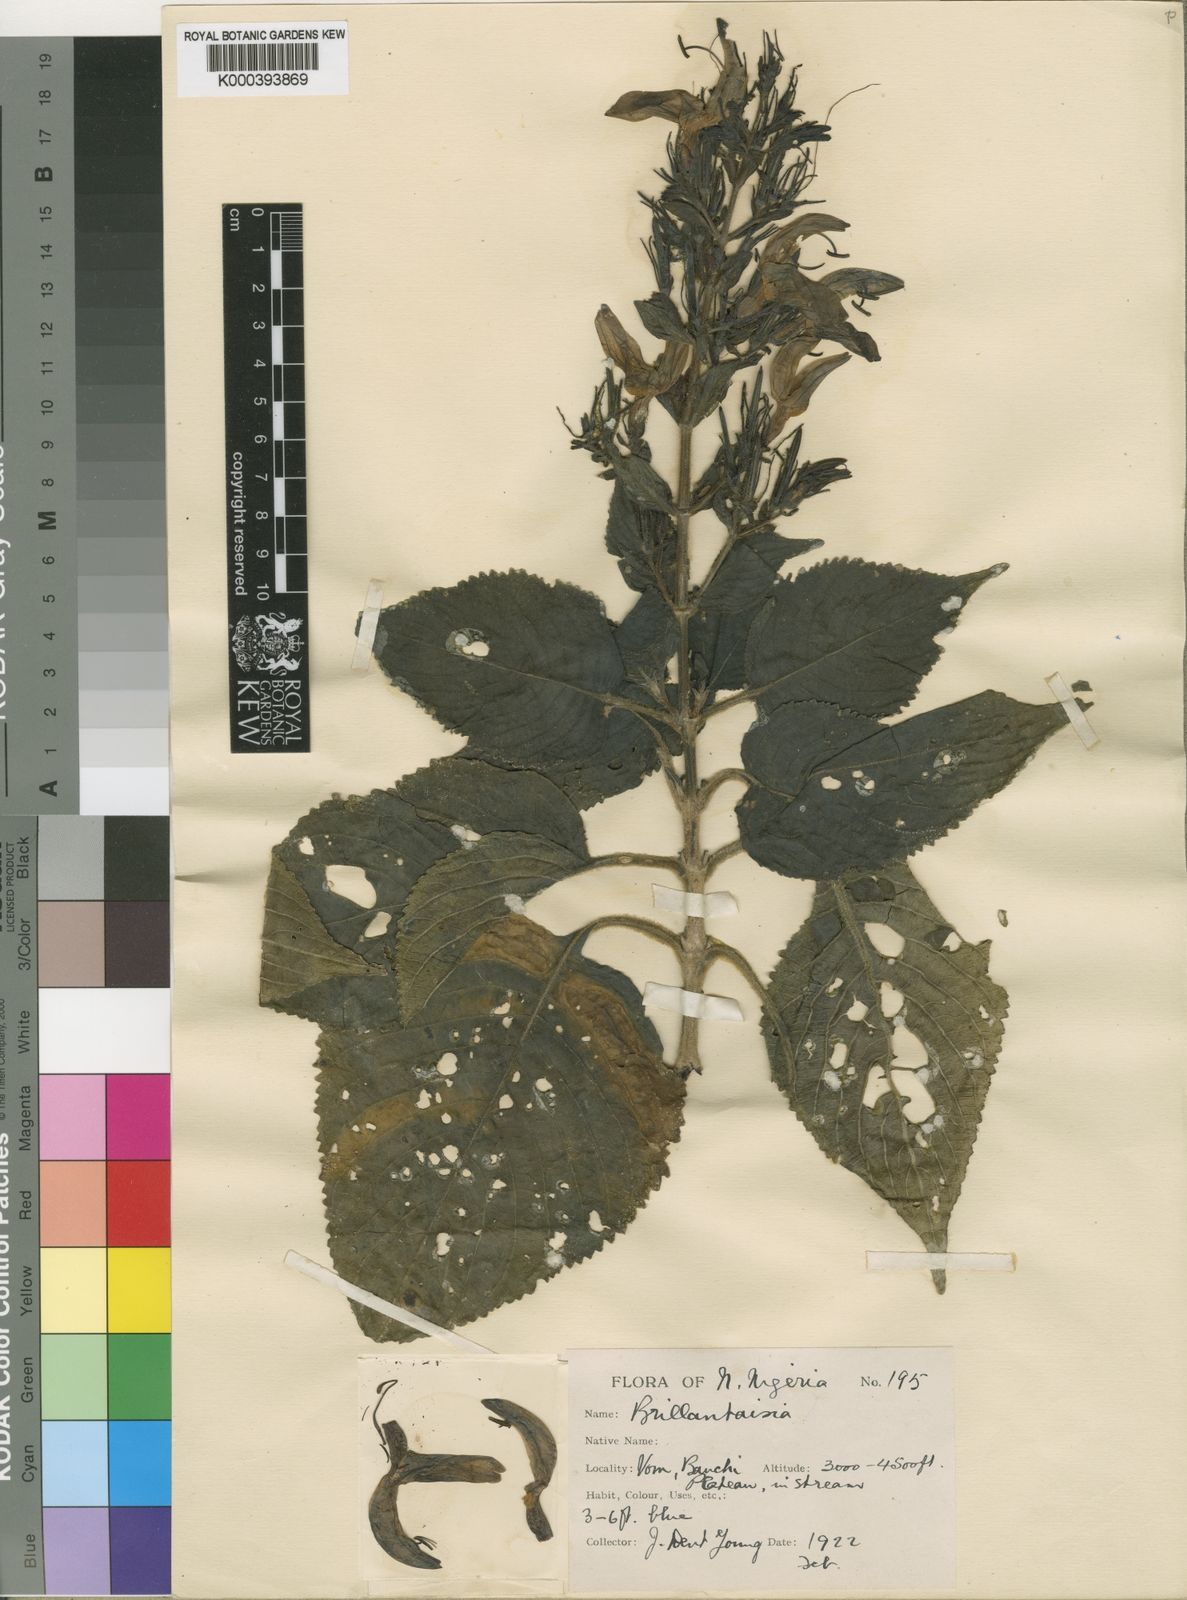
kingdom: Plantae
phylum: Tracheophyta
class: Magnoliopsida
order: Lamiales
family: Acanthaceae
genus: Brillantaisia
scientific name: Brillantaisia owariensis
